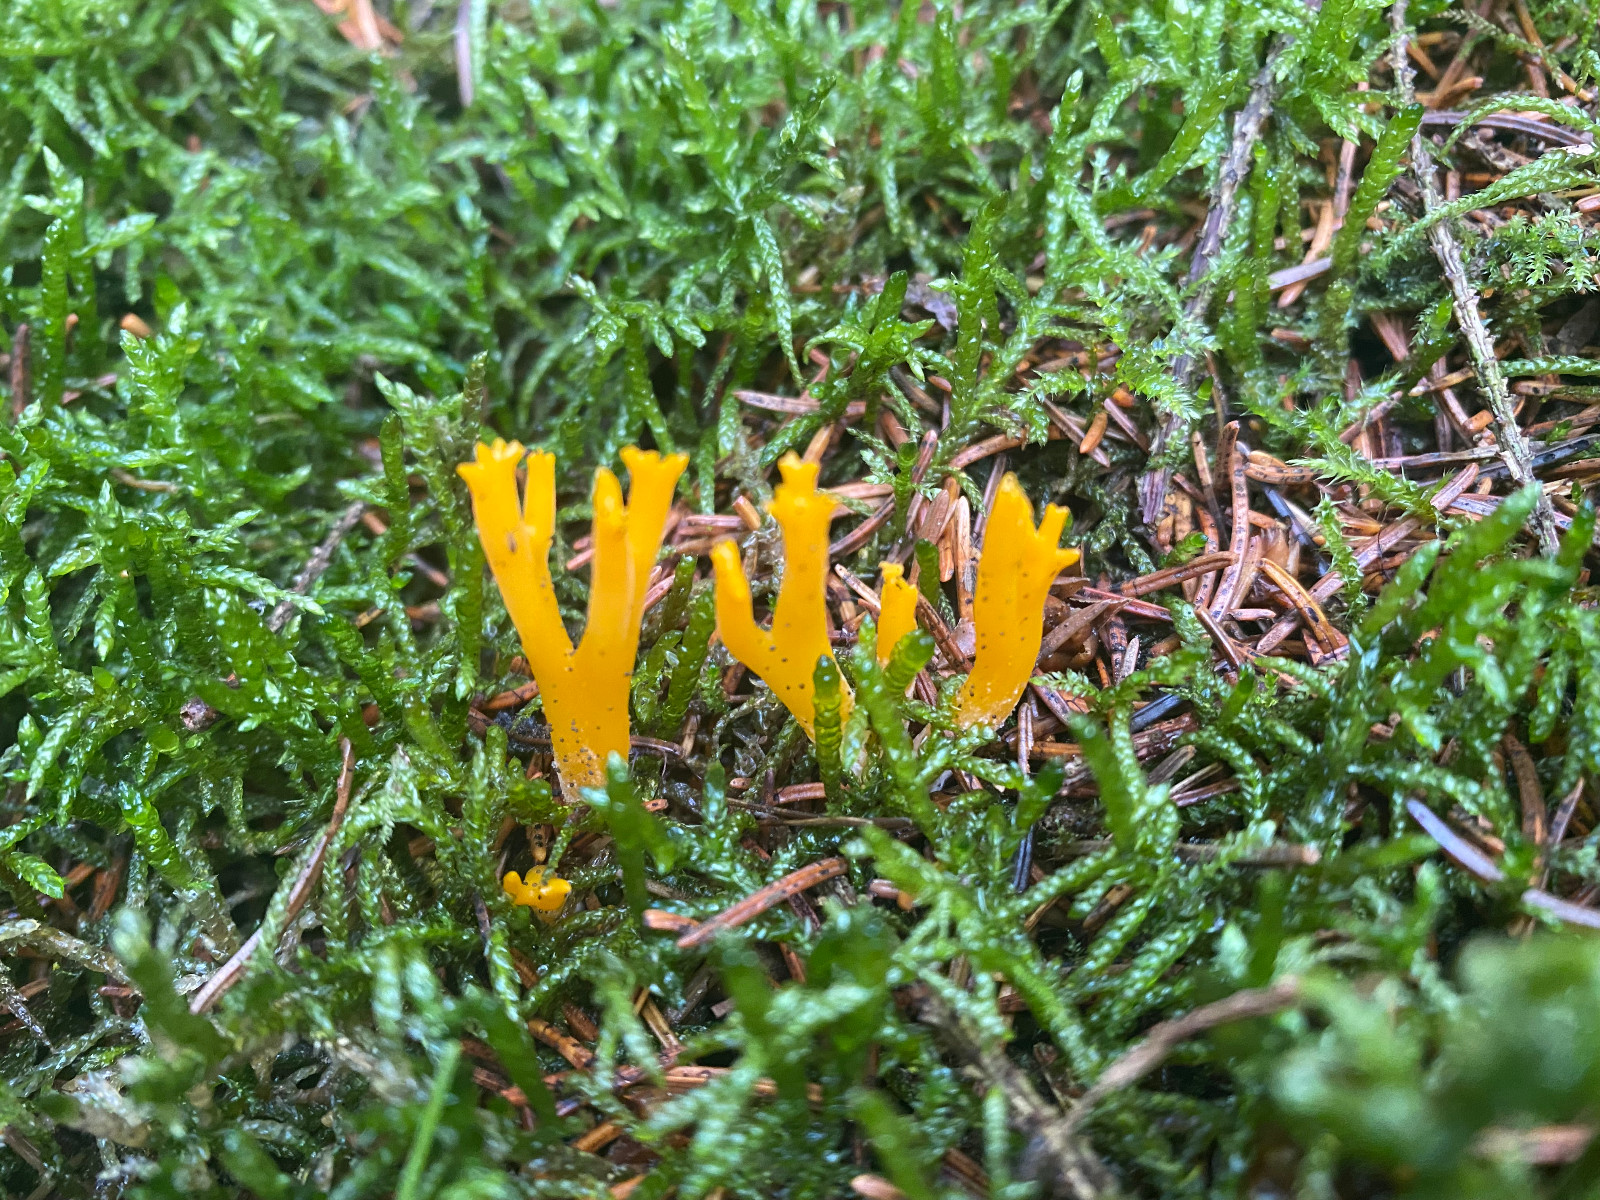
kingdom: Fungi
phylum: Basidiomycota
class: Dacrymycetes
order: Dacrymycetales
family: Dacrymycetaceae
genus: Calocera
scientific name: Calocera viscosa
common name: almindelig guldgaffel
